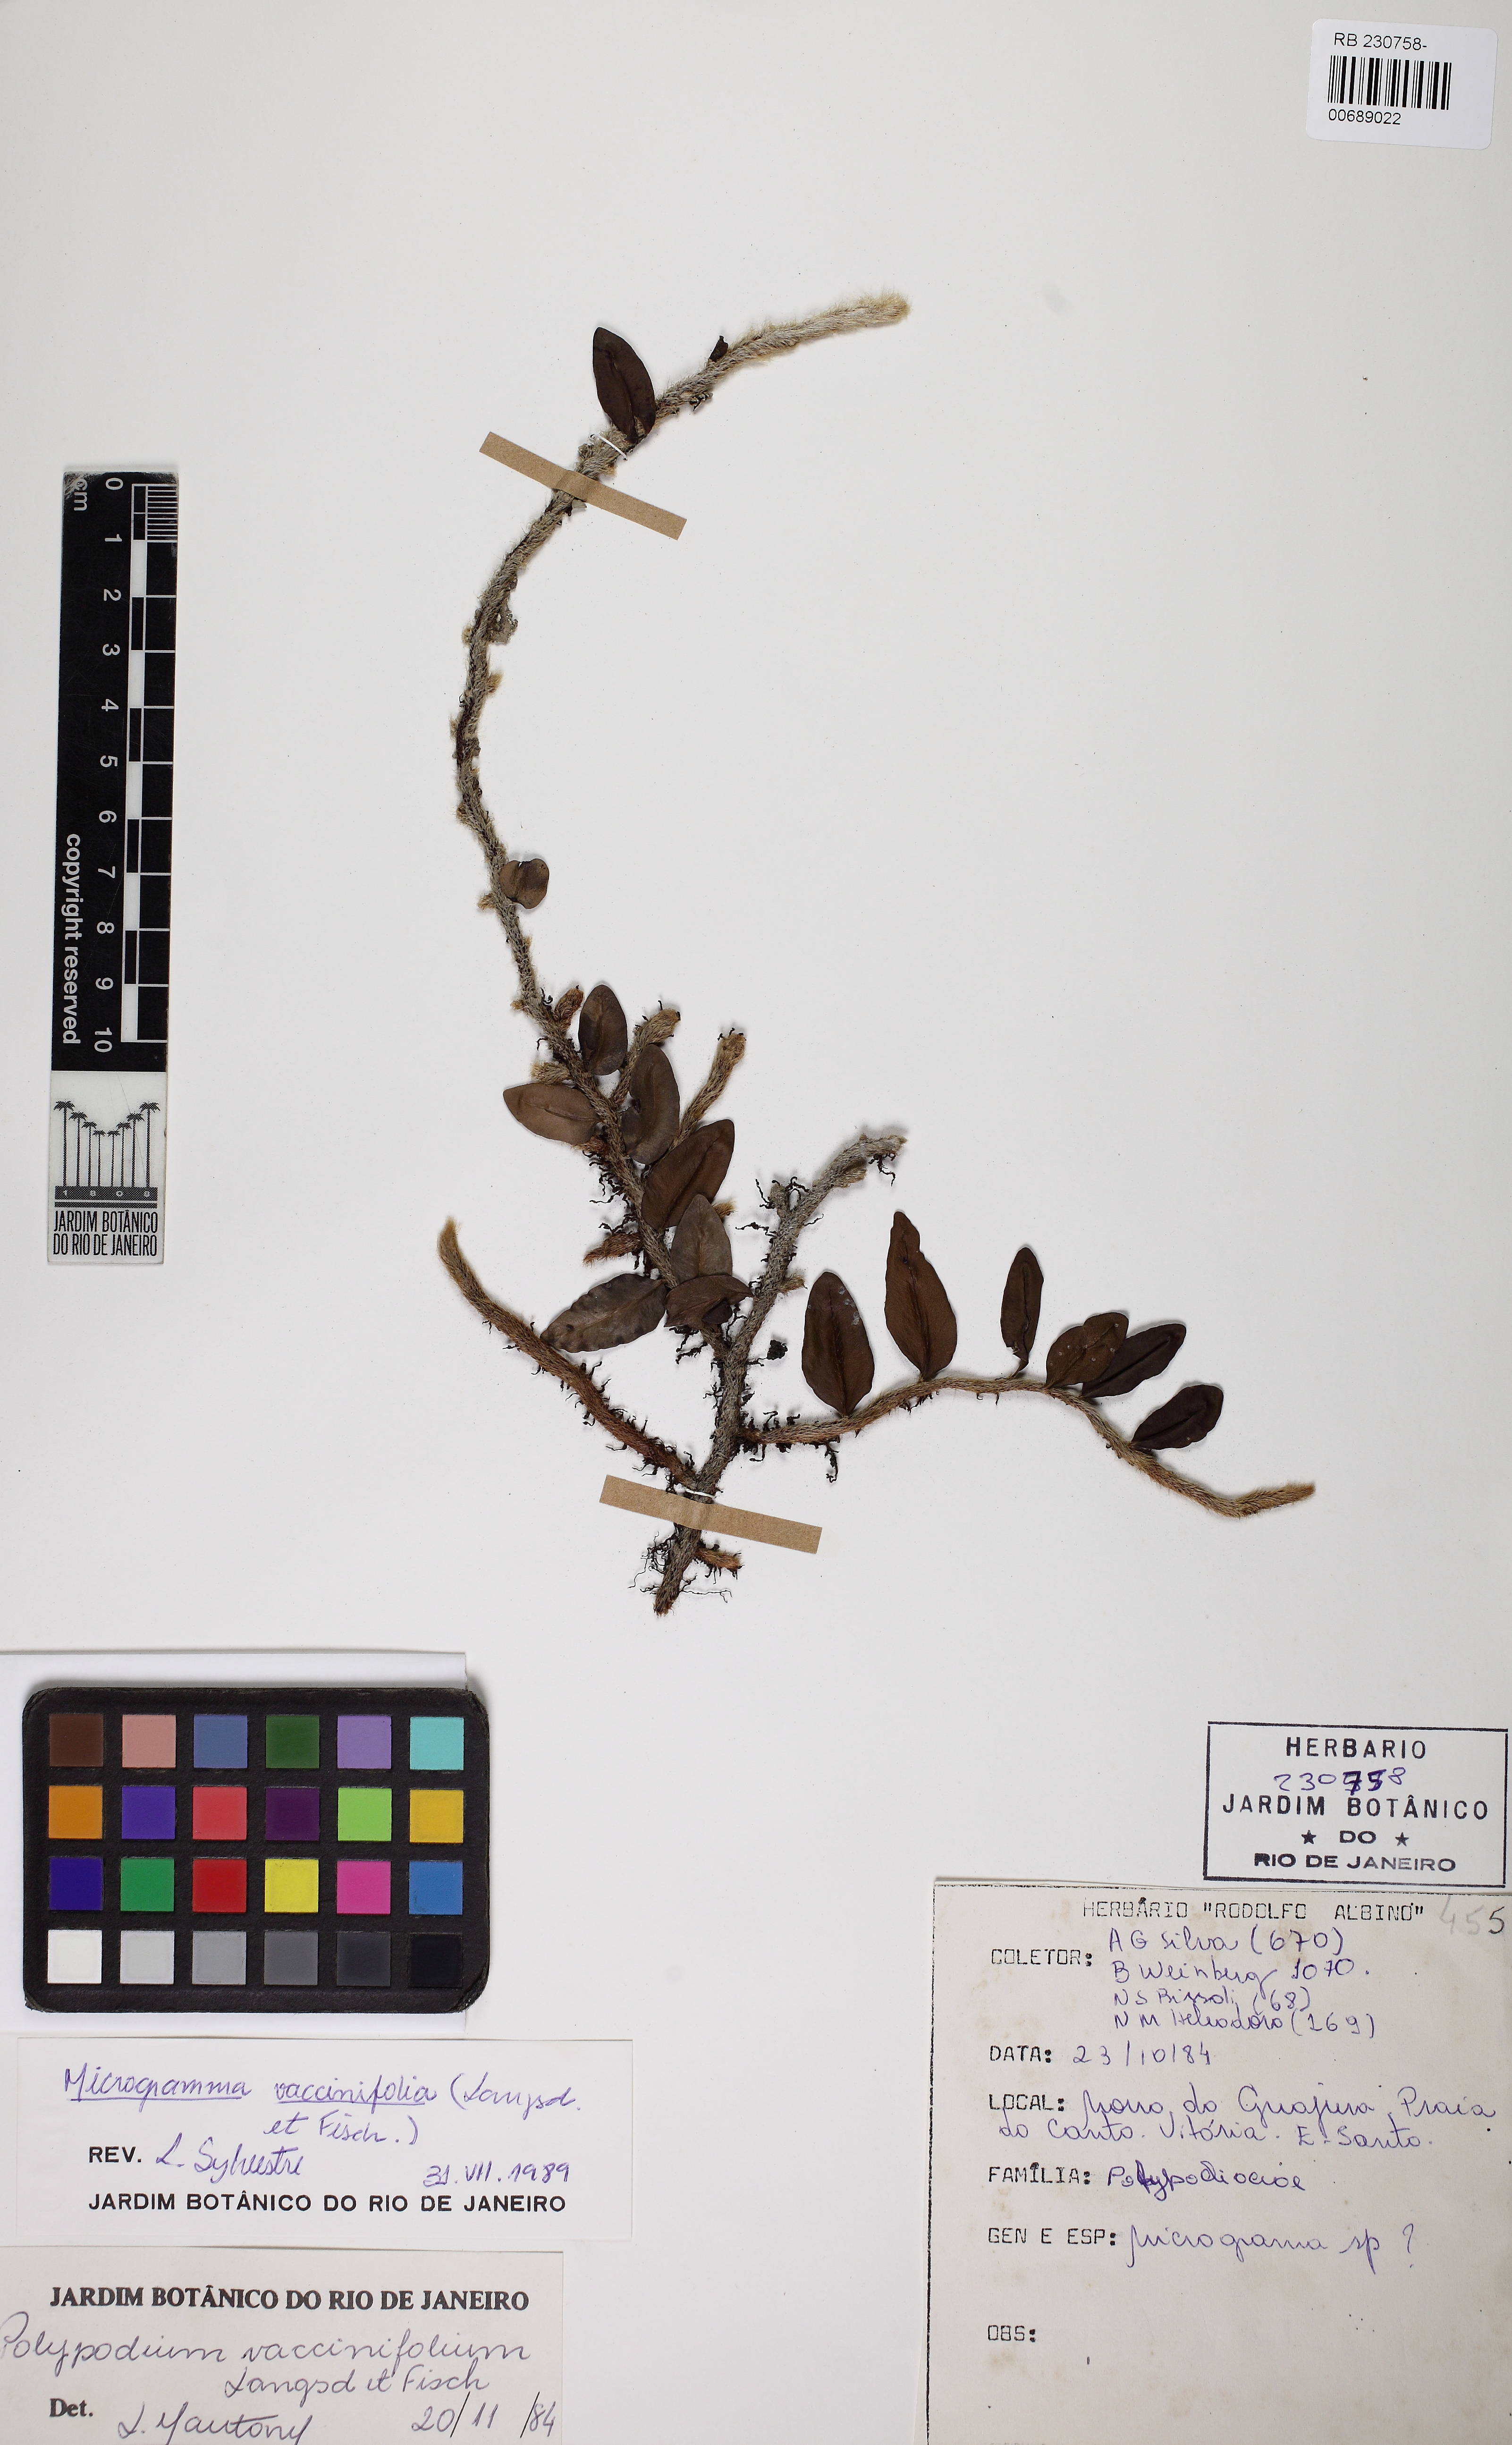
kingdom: Plantae
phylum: Tracheophyta
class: Polypodiopsida
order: Polypodiales
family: Polypodiaceae
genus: Microgramma
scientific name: Microgramma vaccinifolia
